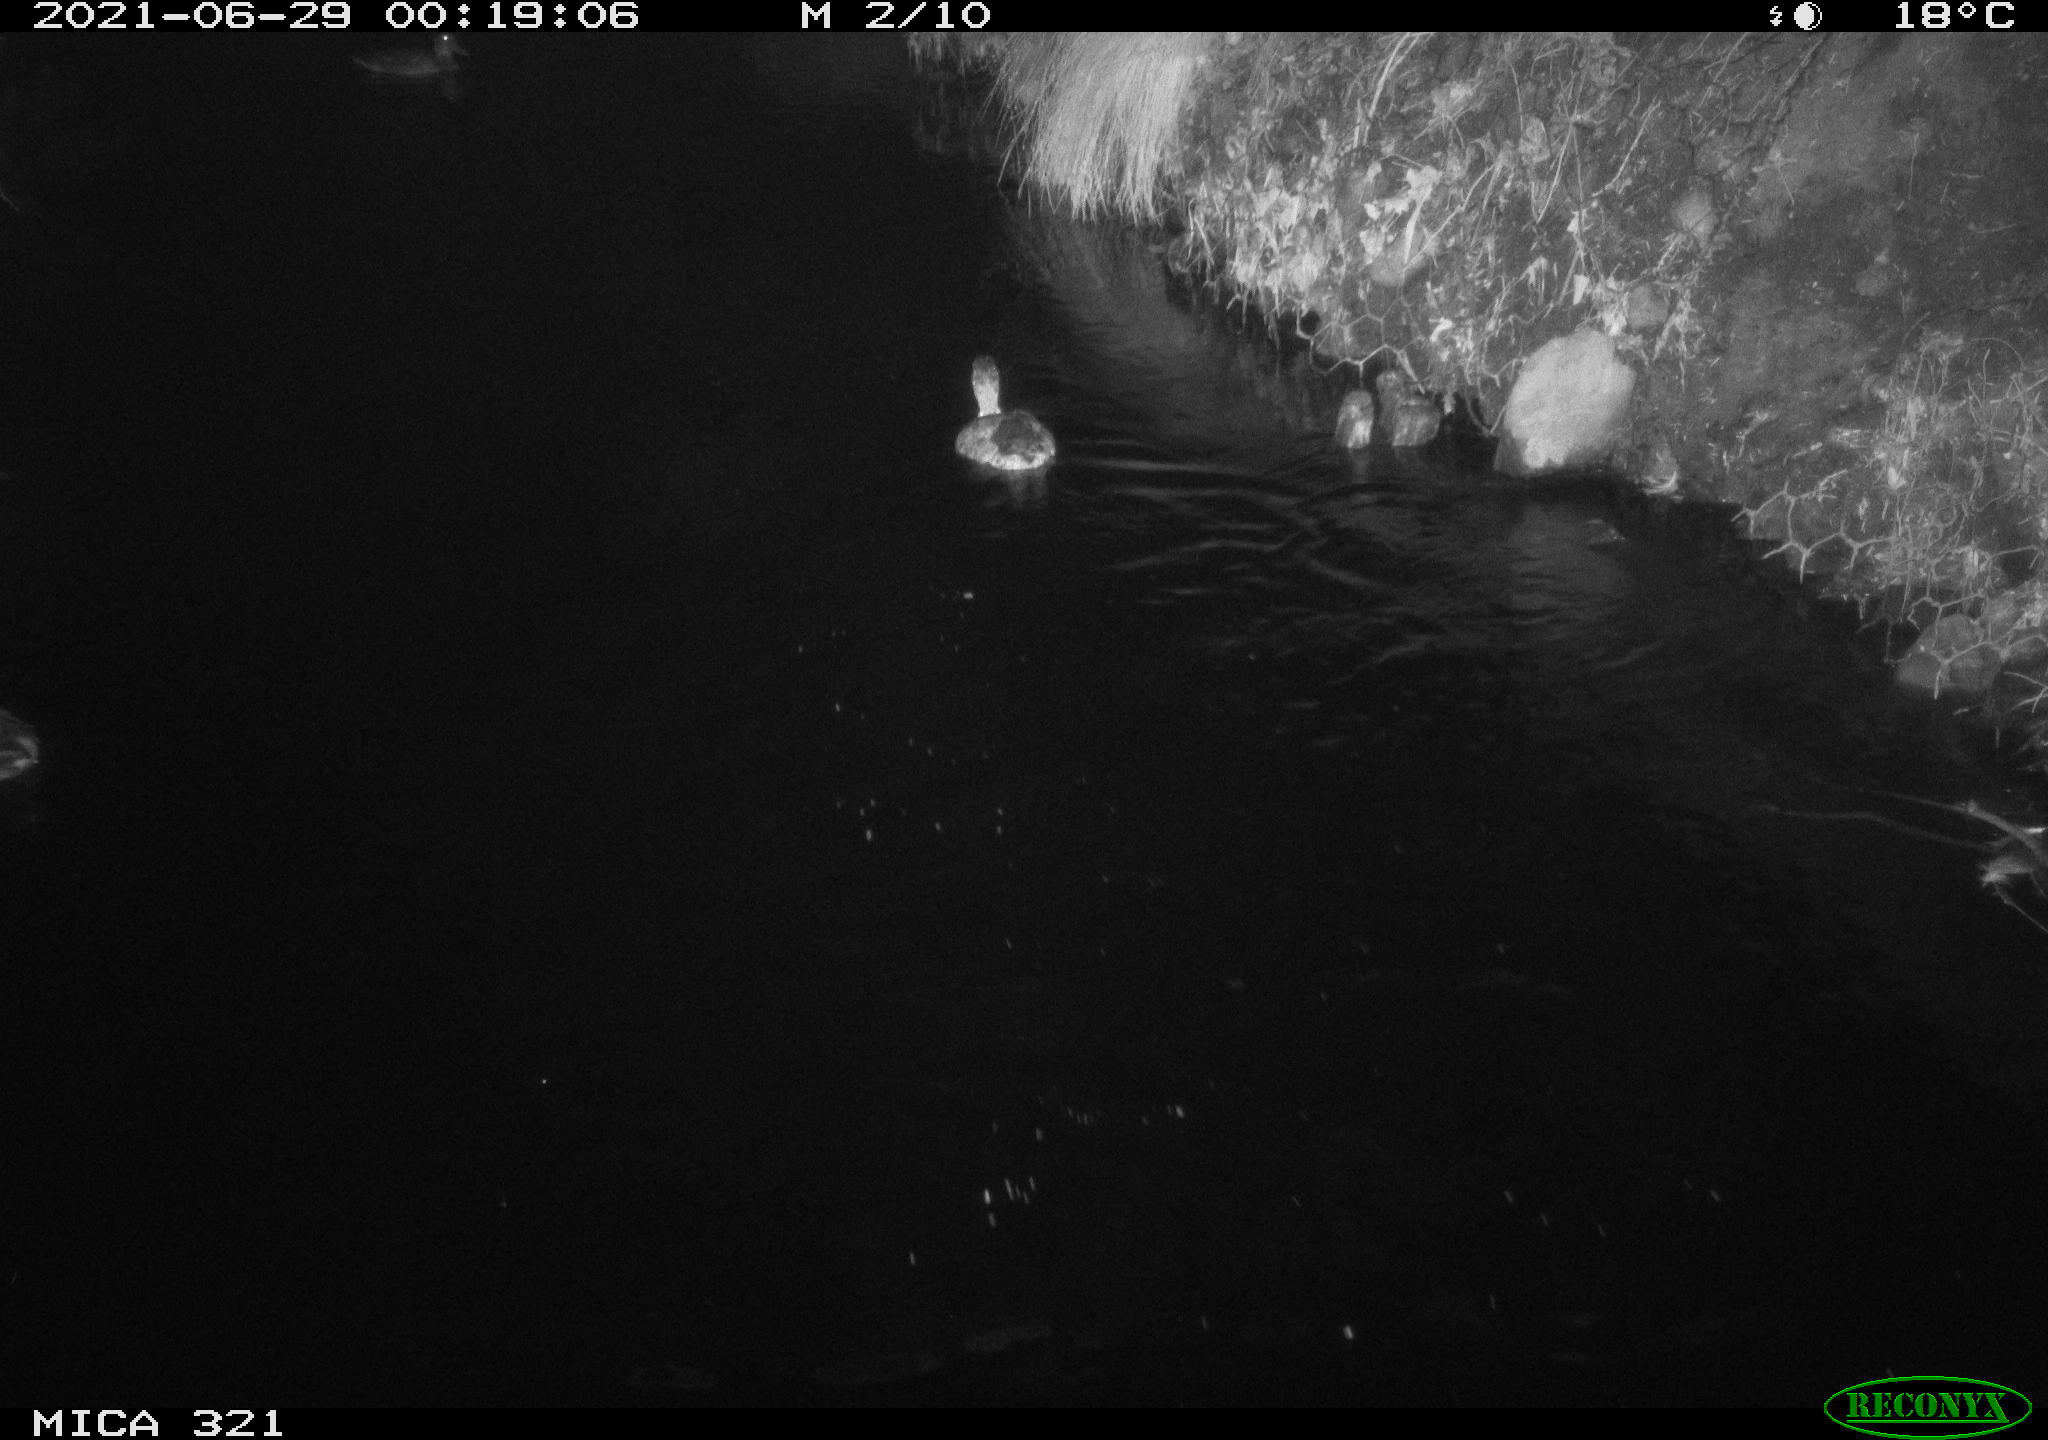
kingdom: Animalia
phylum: Chordata
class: Aves
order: Anseriformes
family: Anatidae
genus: Anas
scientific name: Anas platyrhynchos
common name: Mallard
